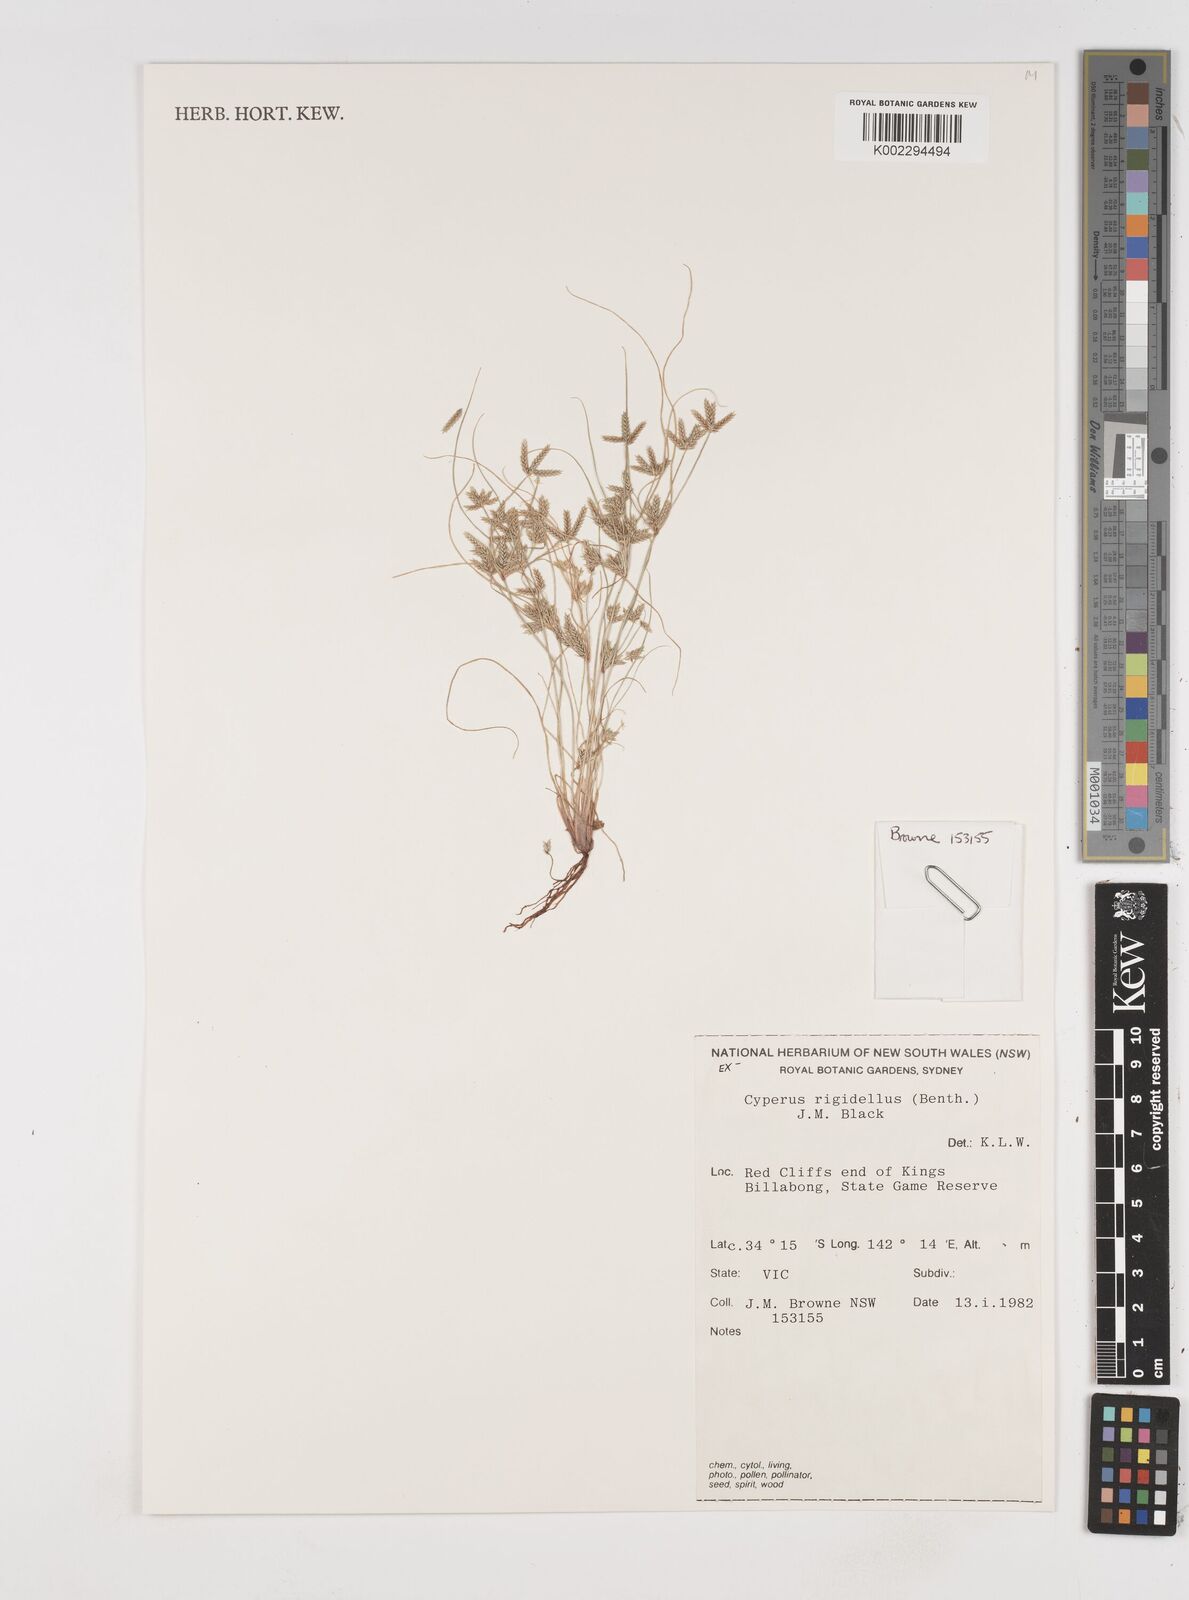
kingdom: Plantae
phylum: Tracheophyta
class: Liliopsida
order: Poales
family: Cyperaceae
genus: Cyperus
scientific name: Cyperus rigidellus
